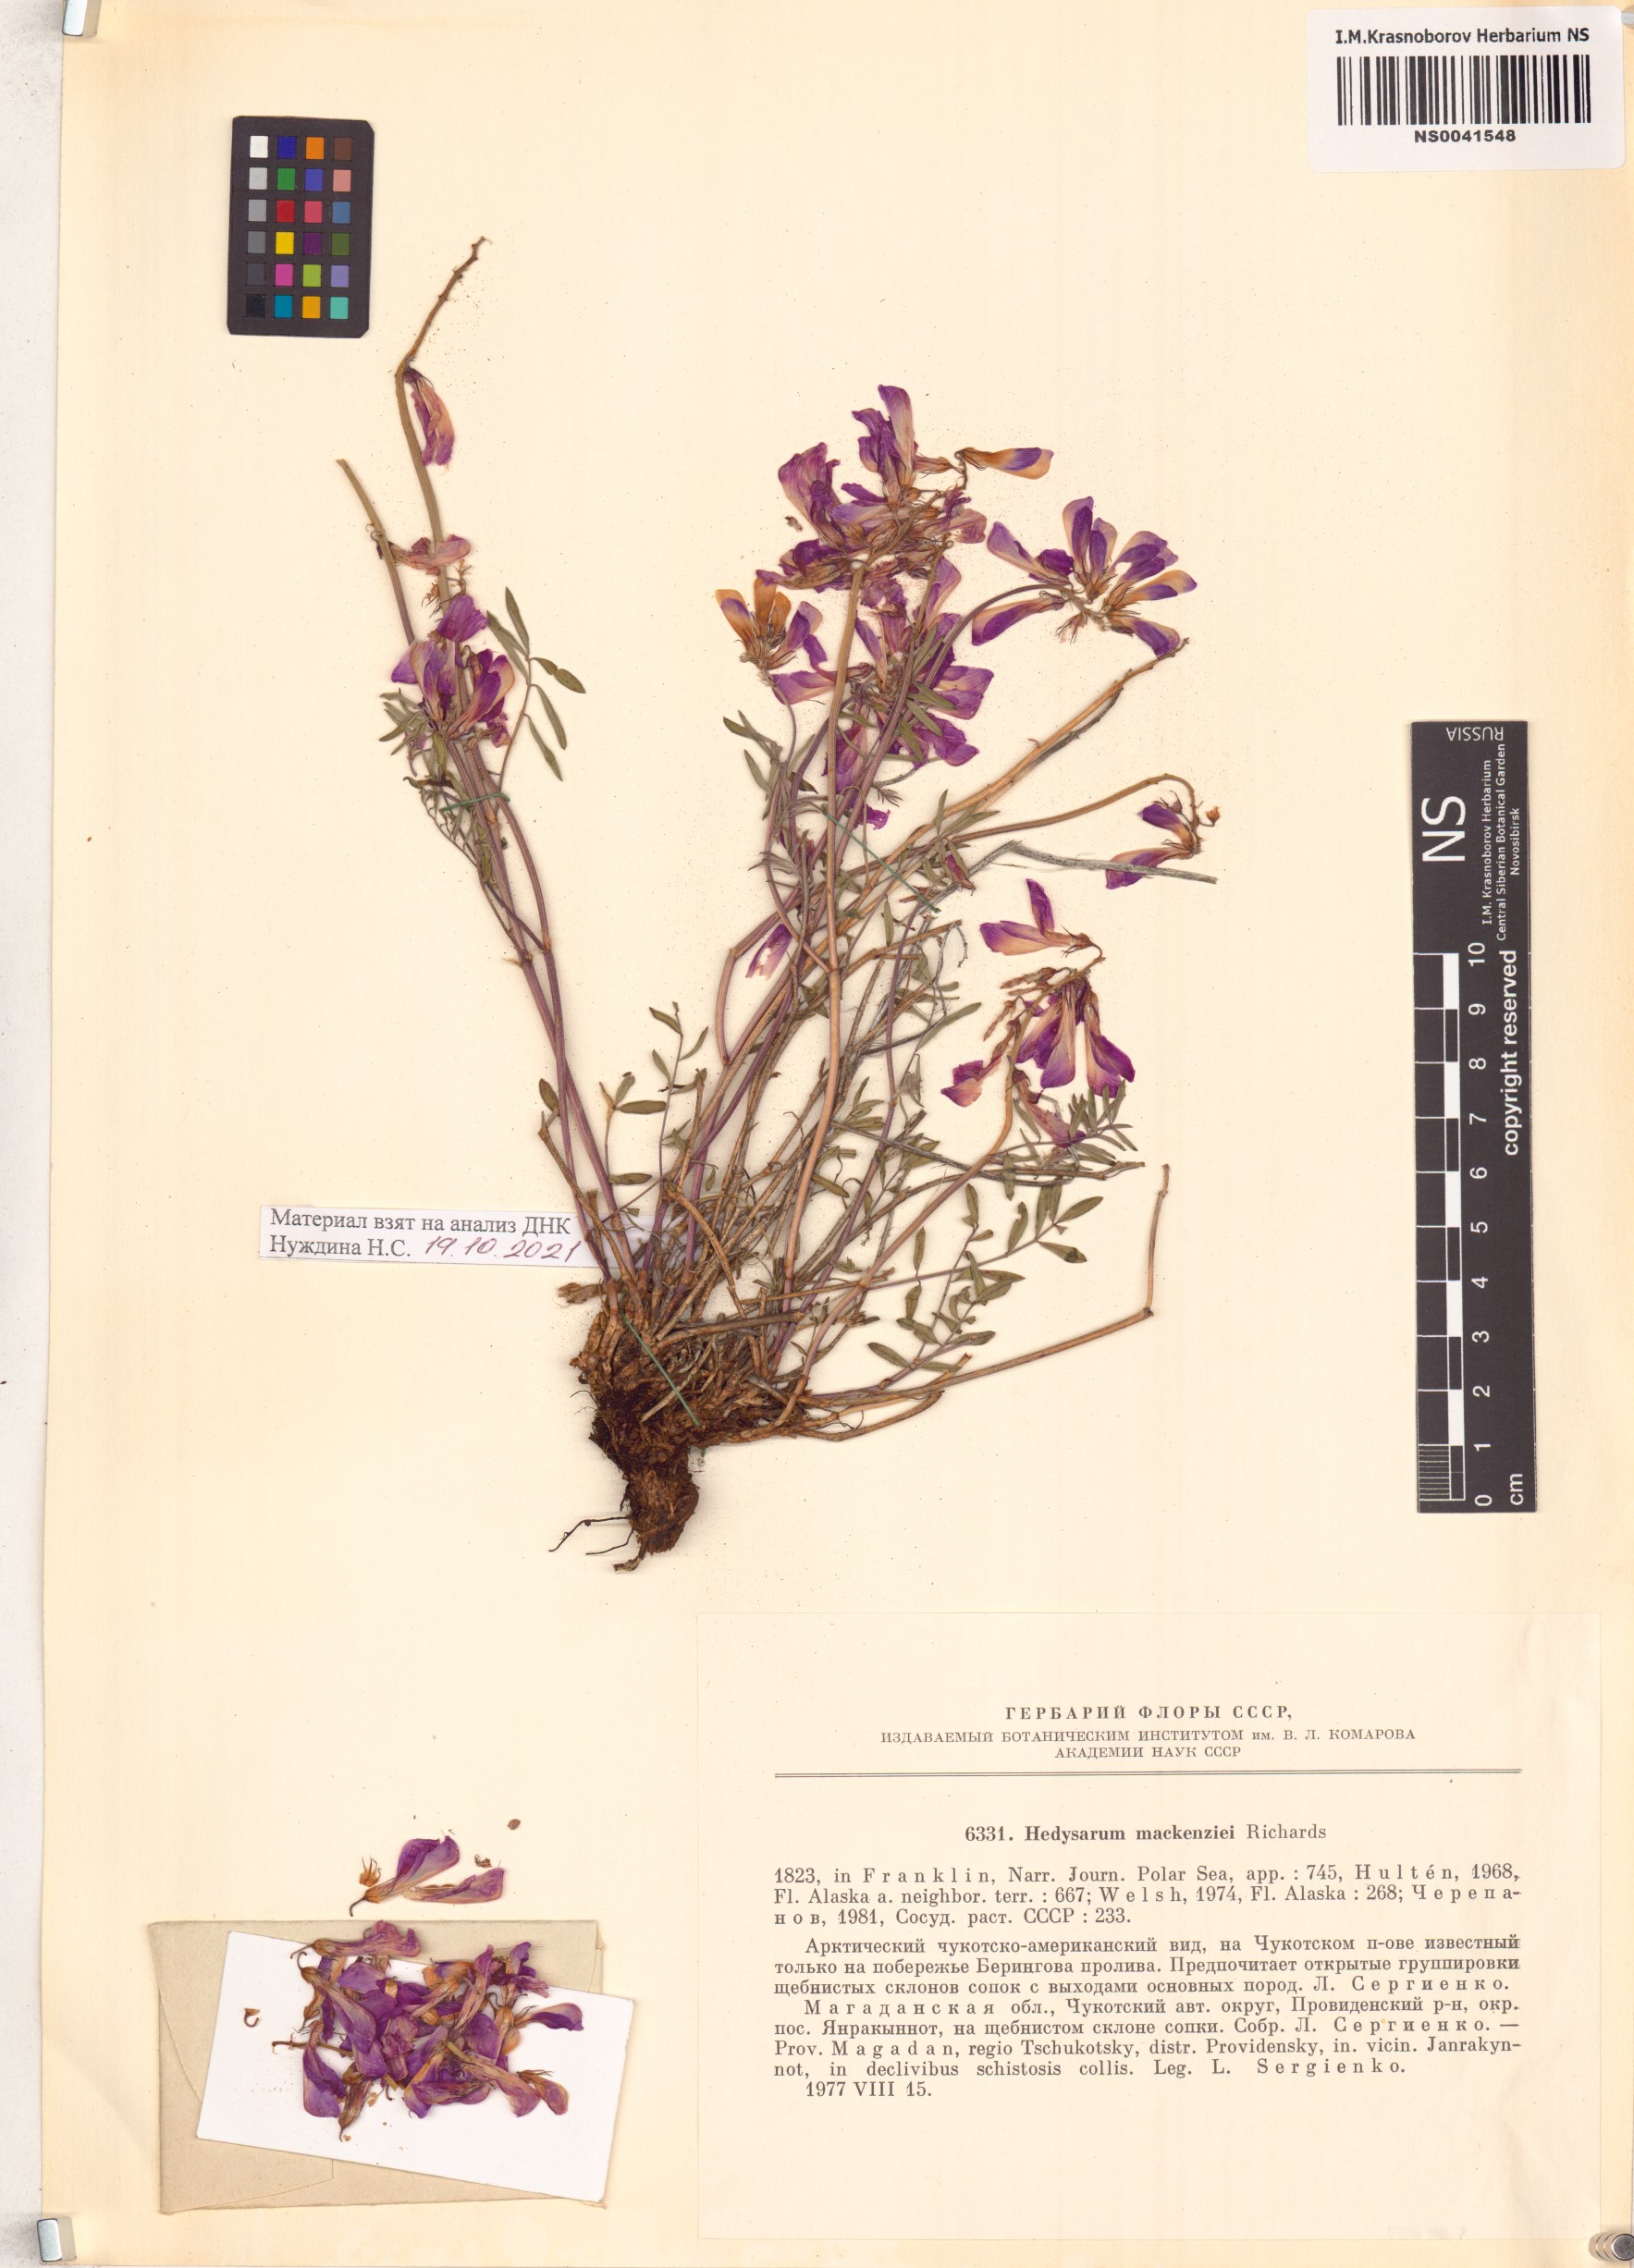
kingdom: Plantae
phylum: Tracheophyta
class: Magnoliopsida
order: Fabales
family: Fabaceae
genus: Hedysarum
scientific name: Hedysarum boreale
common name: Northern sweet-vetch
